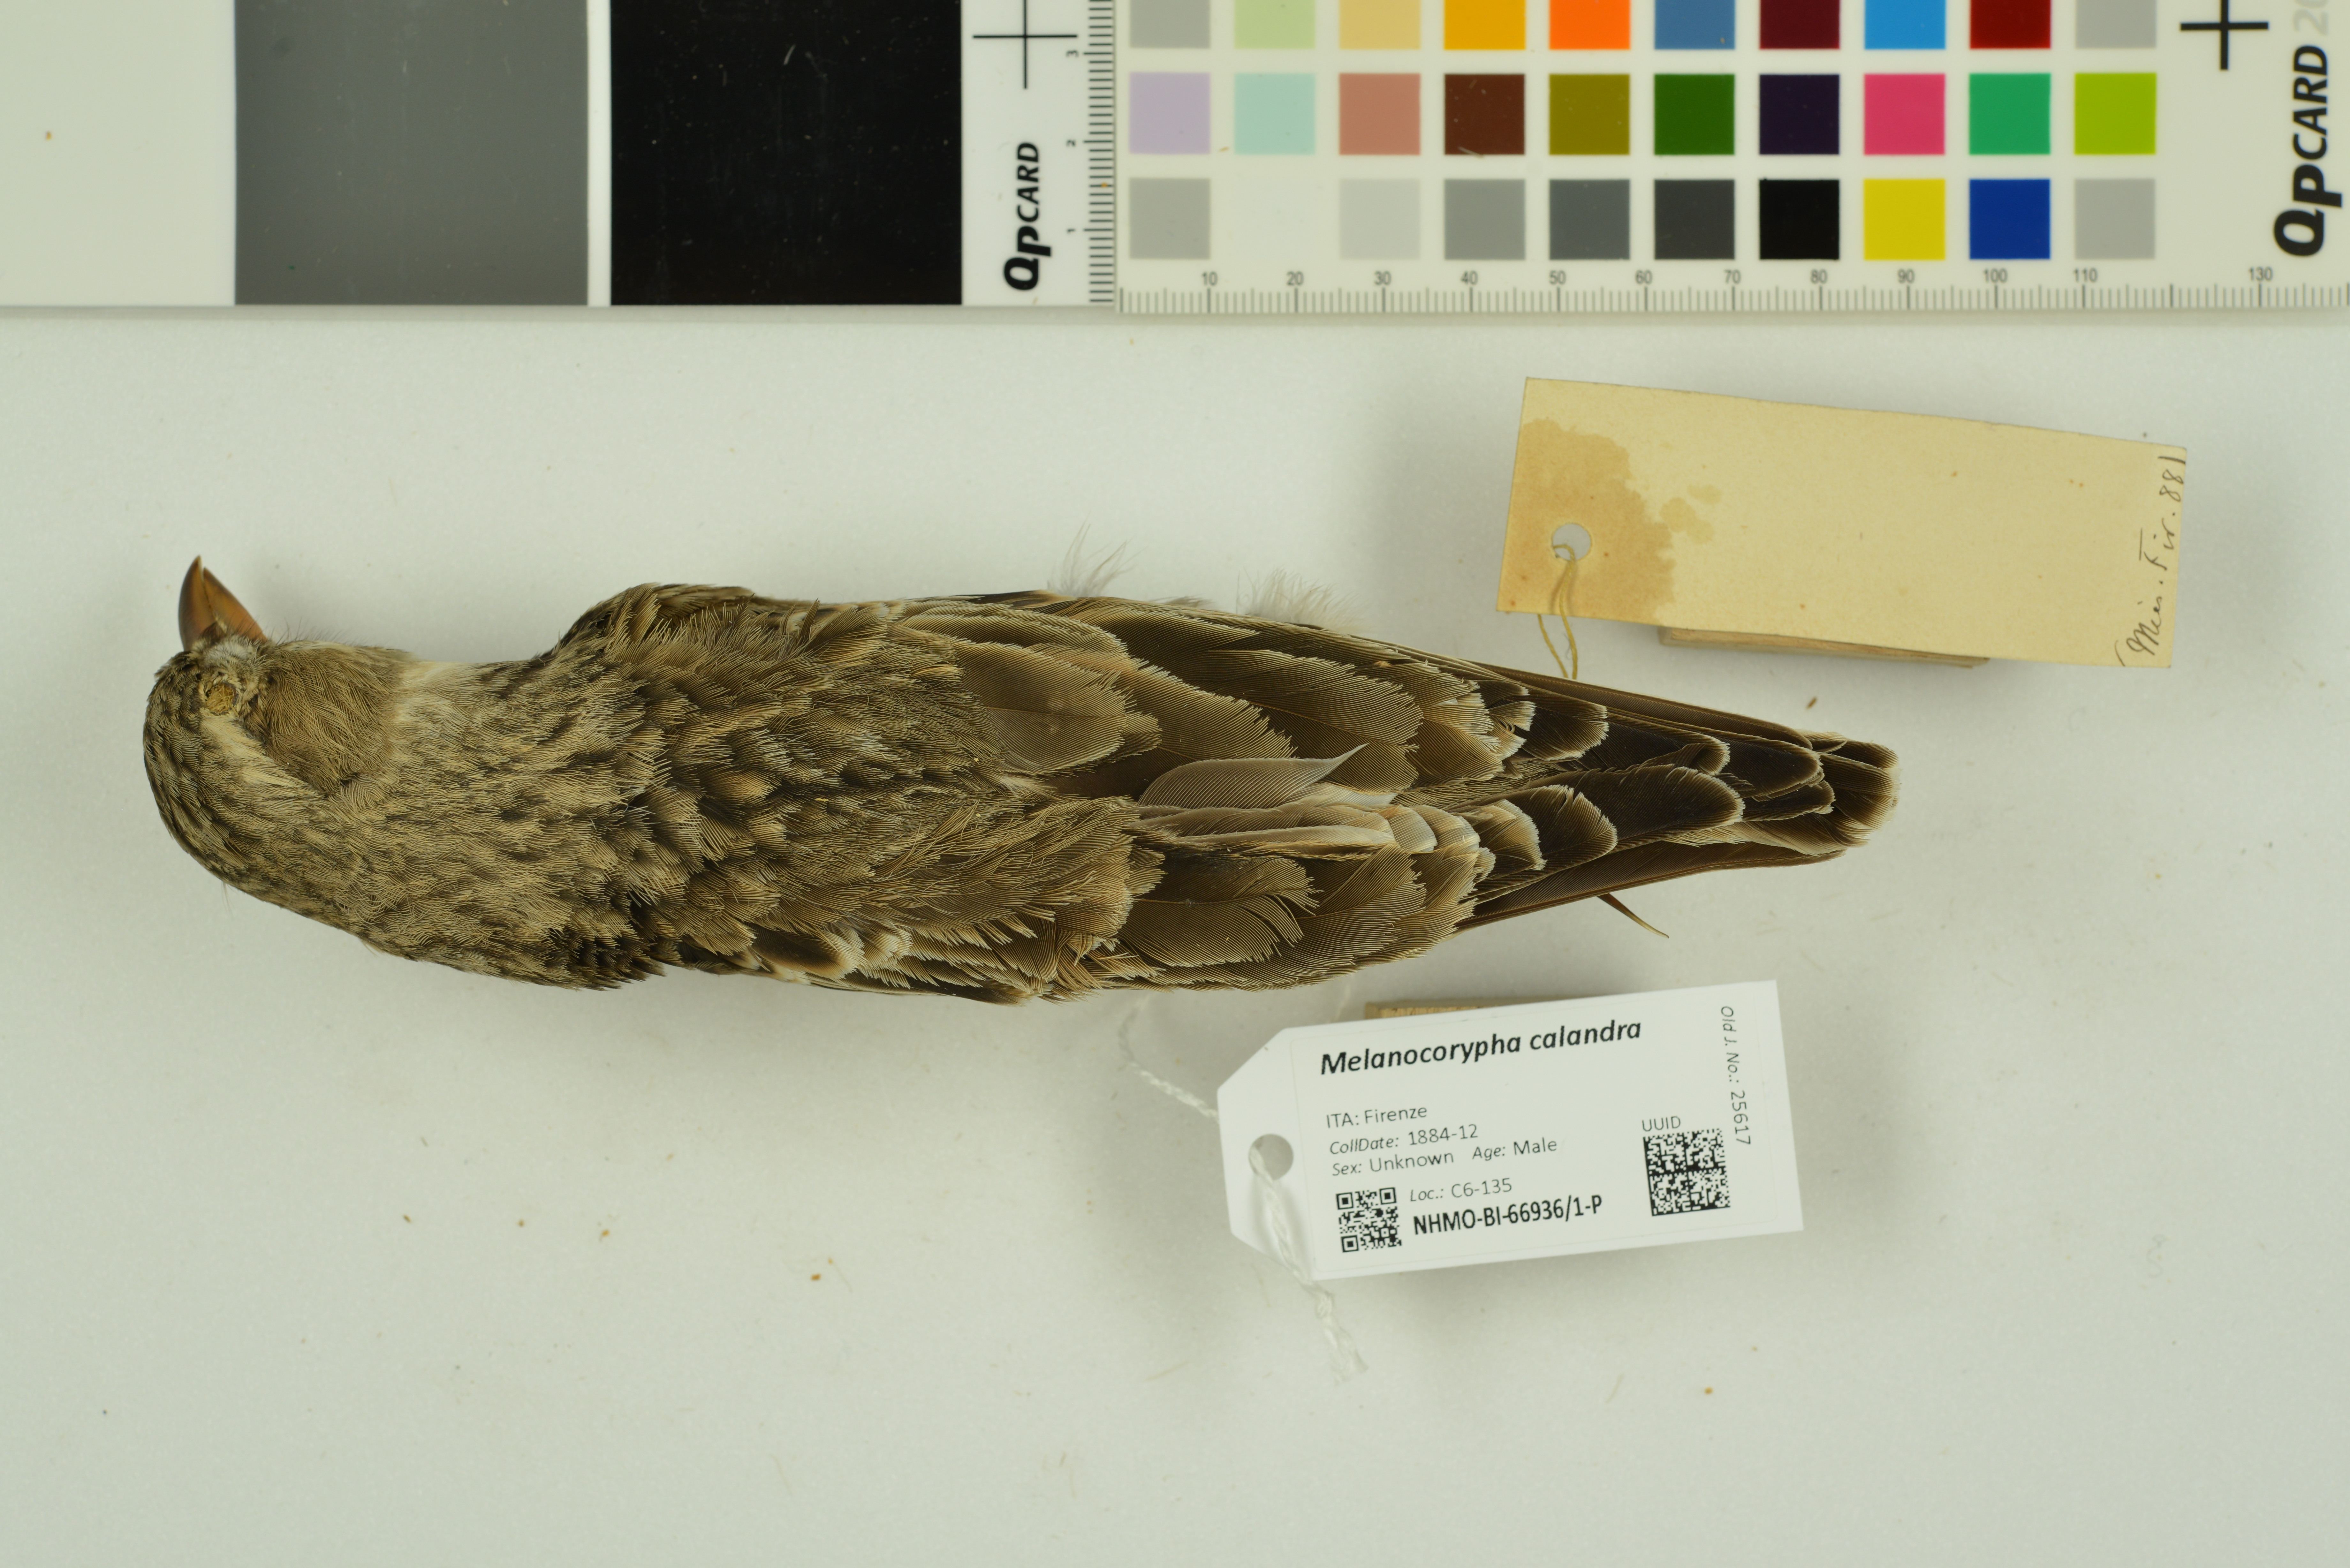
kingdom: Animalia
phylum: Chordata
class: Aves
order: Passeriformes
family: Alaudidae
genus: Melanocorypha
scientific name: Melanocorypha calandra
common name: Calandra lark
